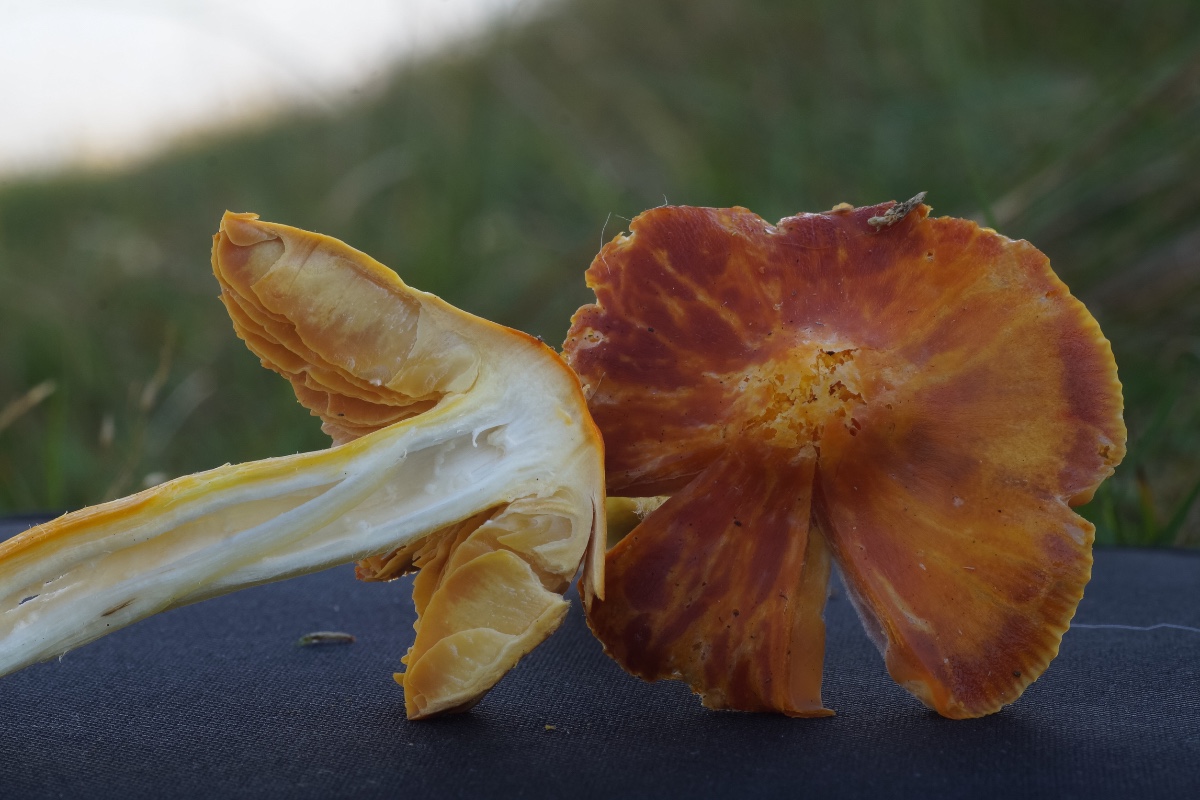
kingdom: Fungi
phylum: Basidiomycota
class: Agaricomycetes
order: Agaricales
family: Hygrophoraceae
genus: Hygrocybe
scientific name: Hygrocybe punicea
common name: skarlagen-vokshat
